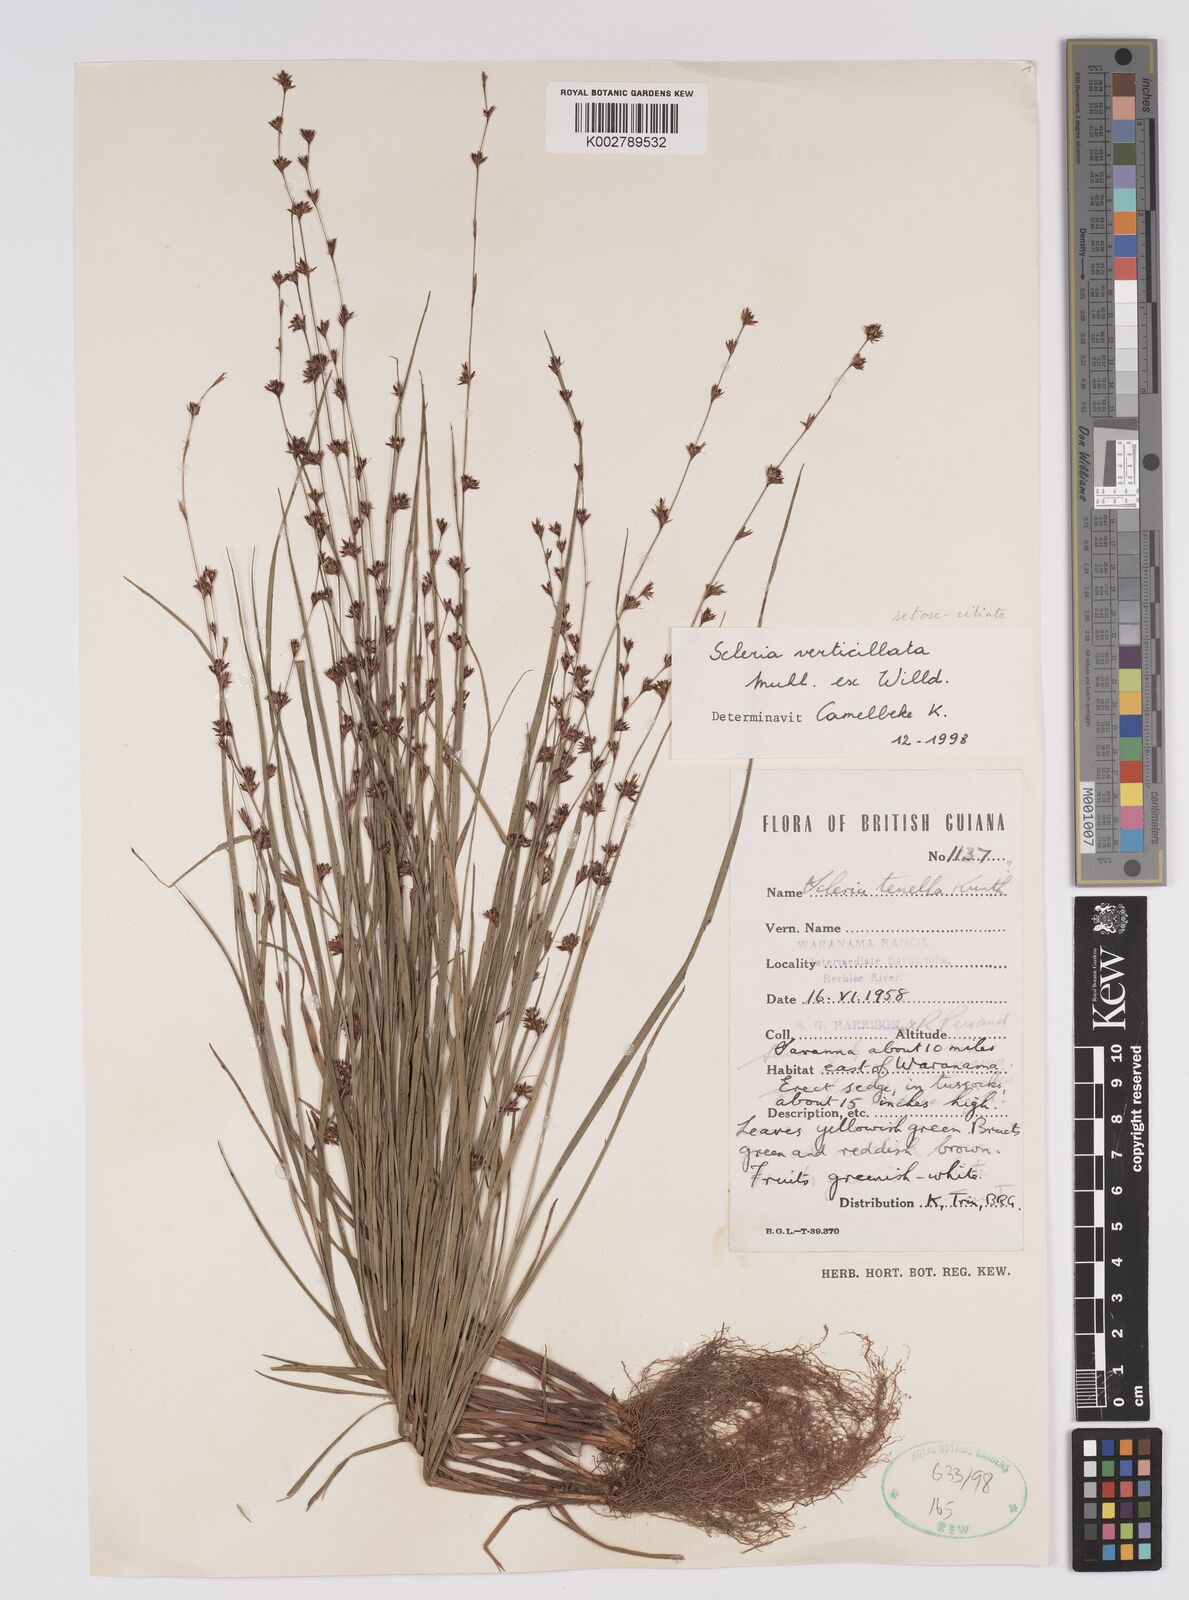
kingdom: Plantae
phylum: Tracheophyta
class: Liliopsida
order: Poales
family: Cyperaceae
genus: Scleria
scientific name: Scleria verticillata
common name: Low nutrush
